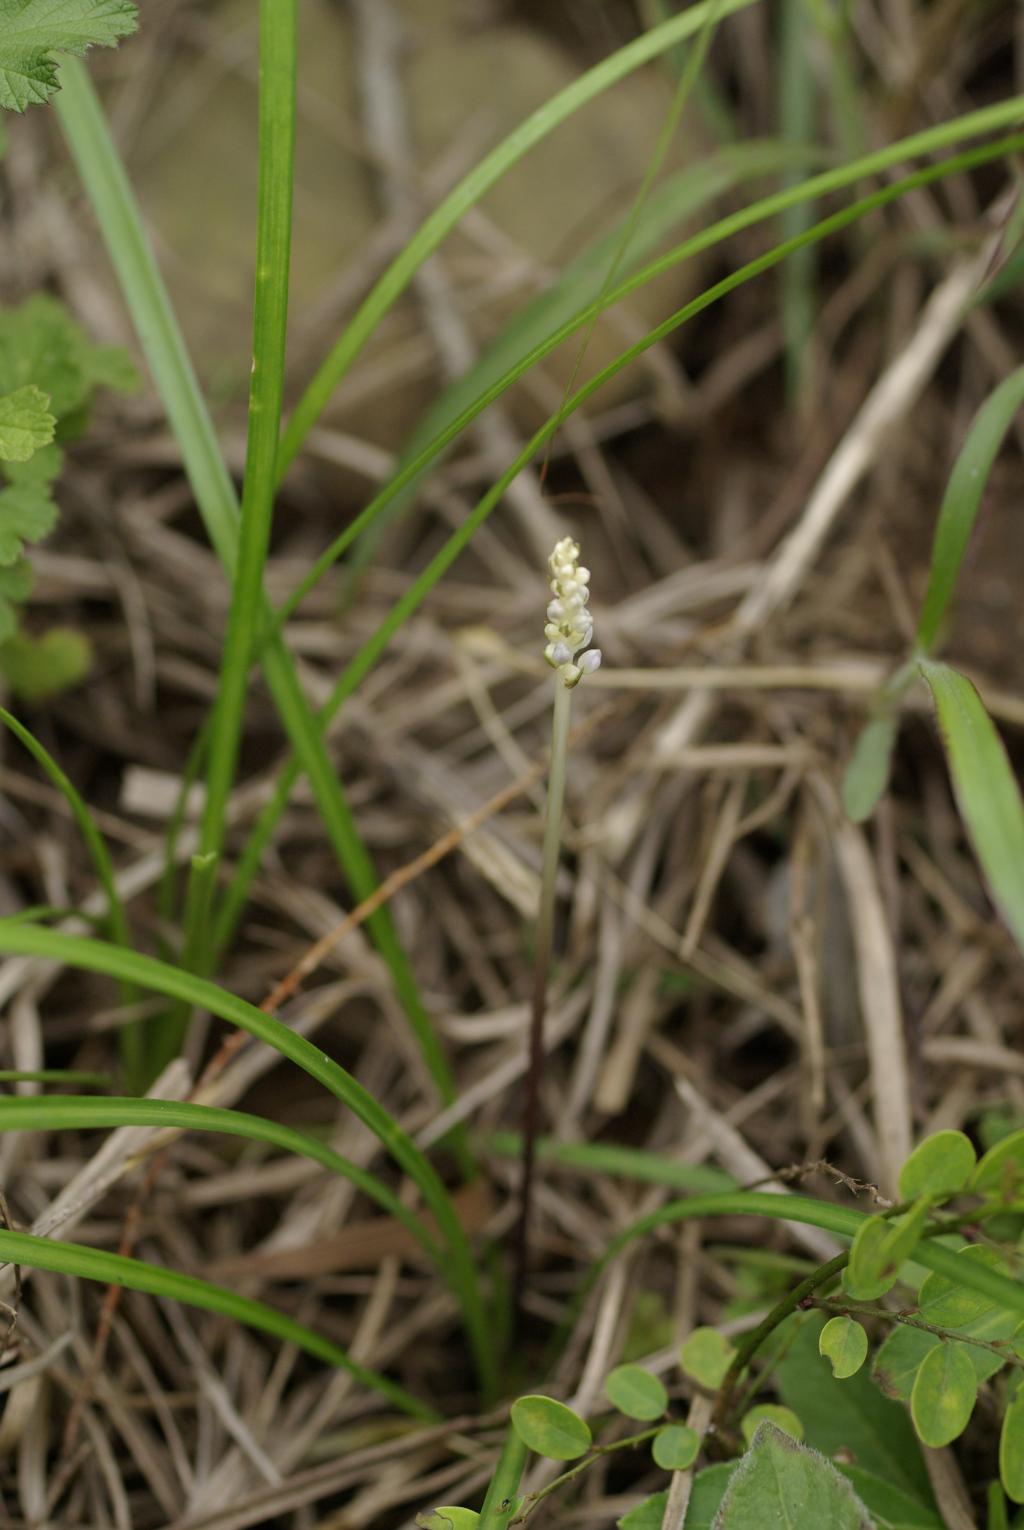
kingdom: Plantae
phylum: Tracheophyta
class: Liliopsida
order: Asparagales
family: Asparagaceae
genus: Liriope
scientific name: Liriope graminifolia
